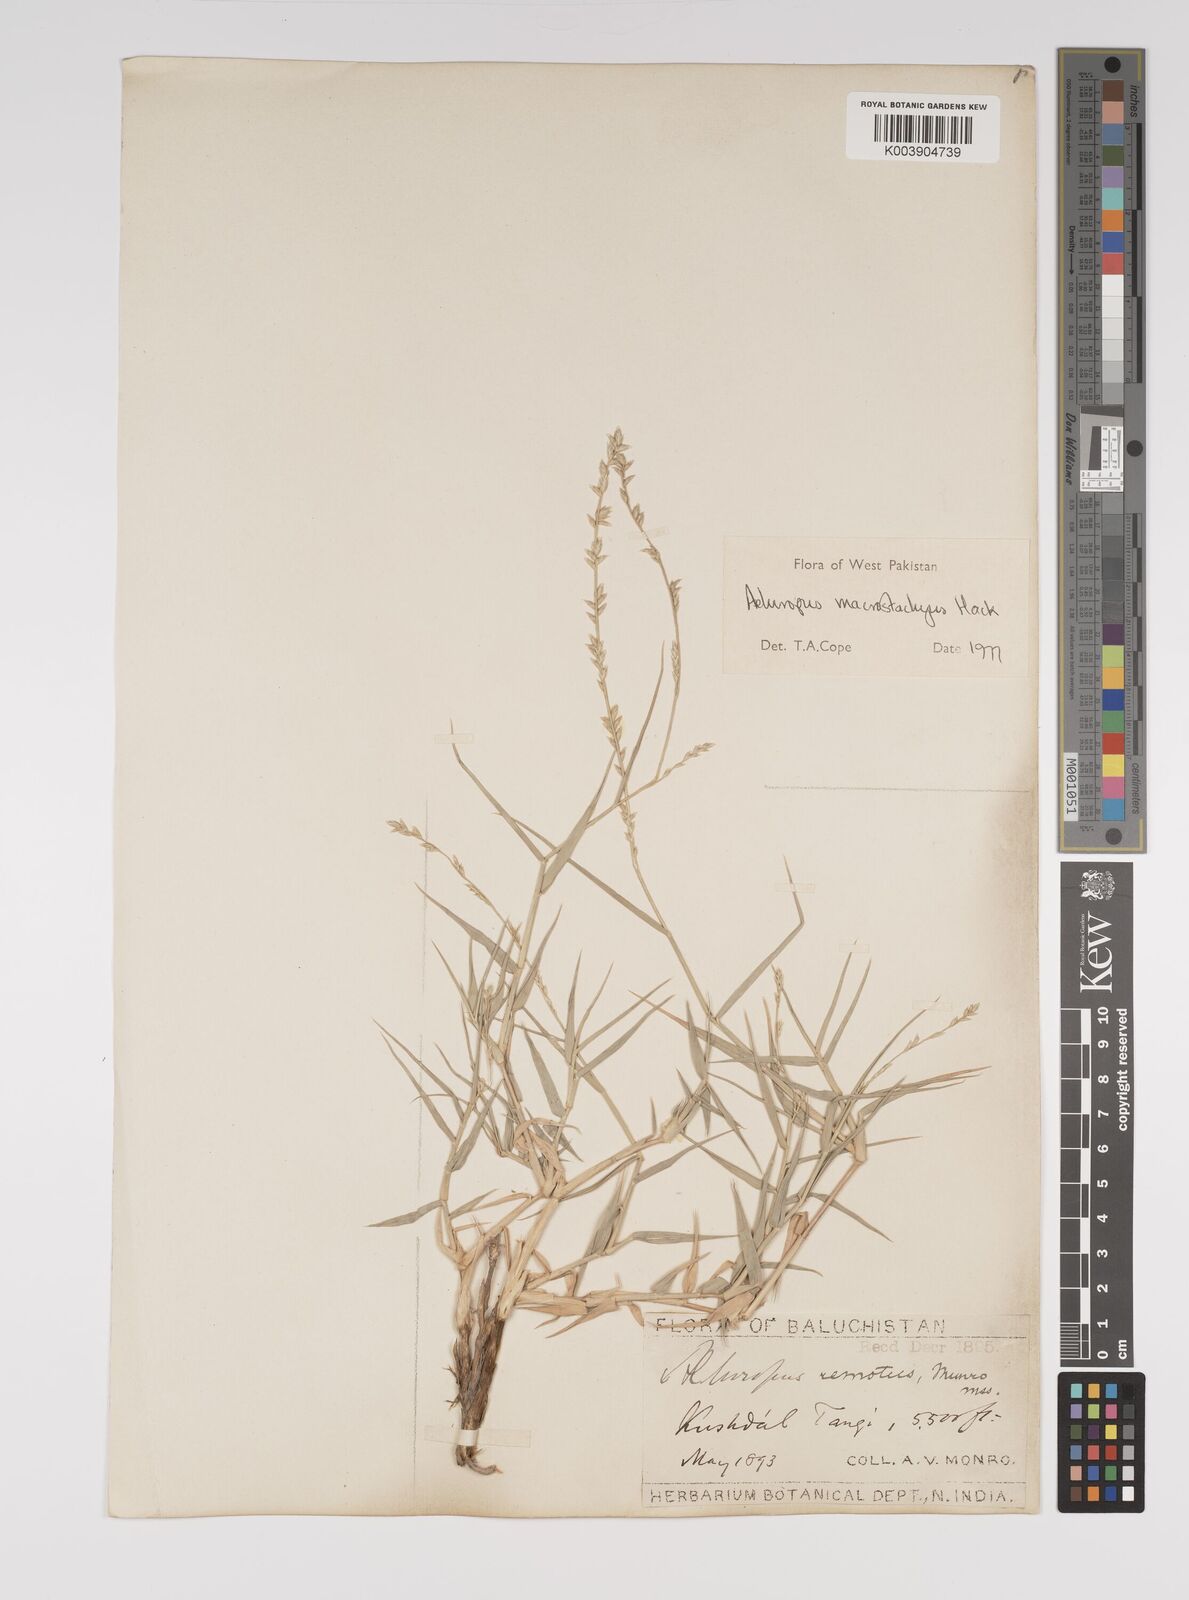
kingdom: Plantae
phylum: Tracheophyta
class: Liliopsida
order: Poales
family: Poaceae
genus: Aeluropus
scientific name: Aeluropus macrostachyus
